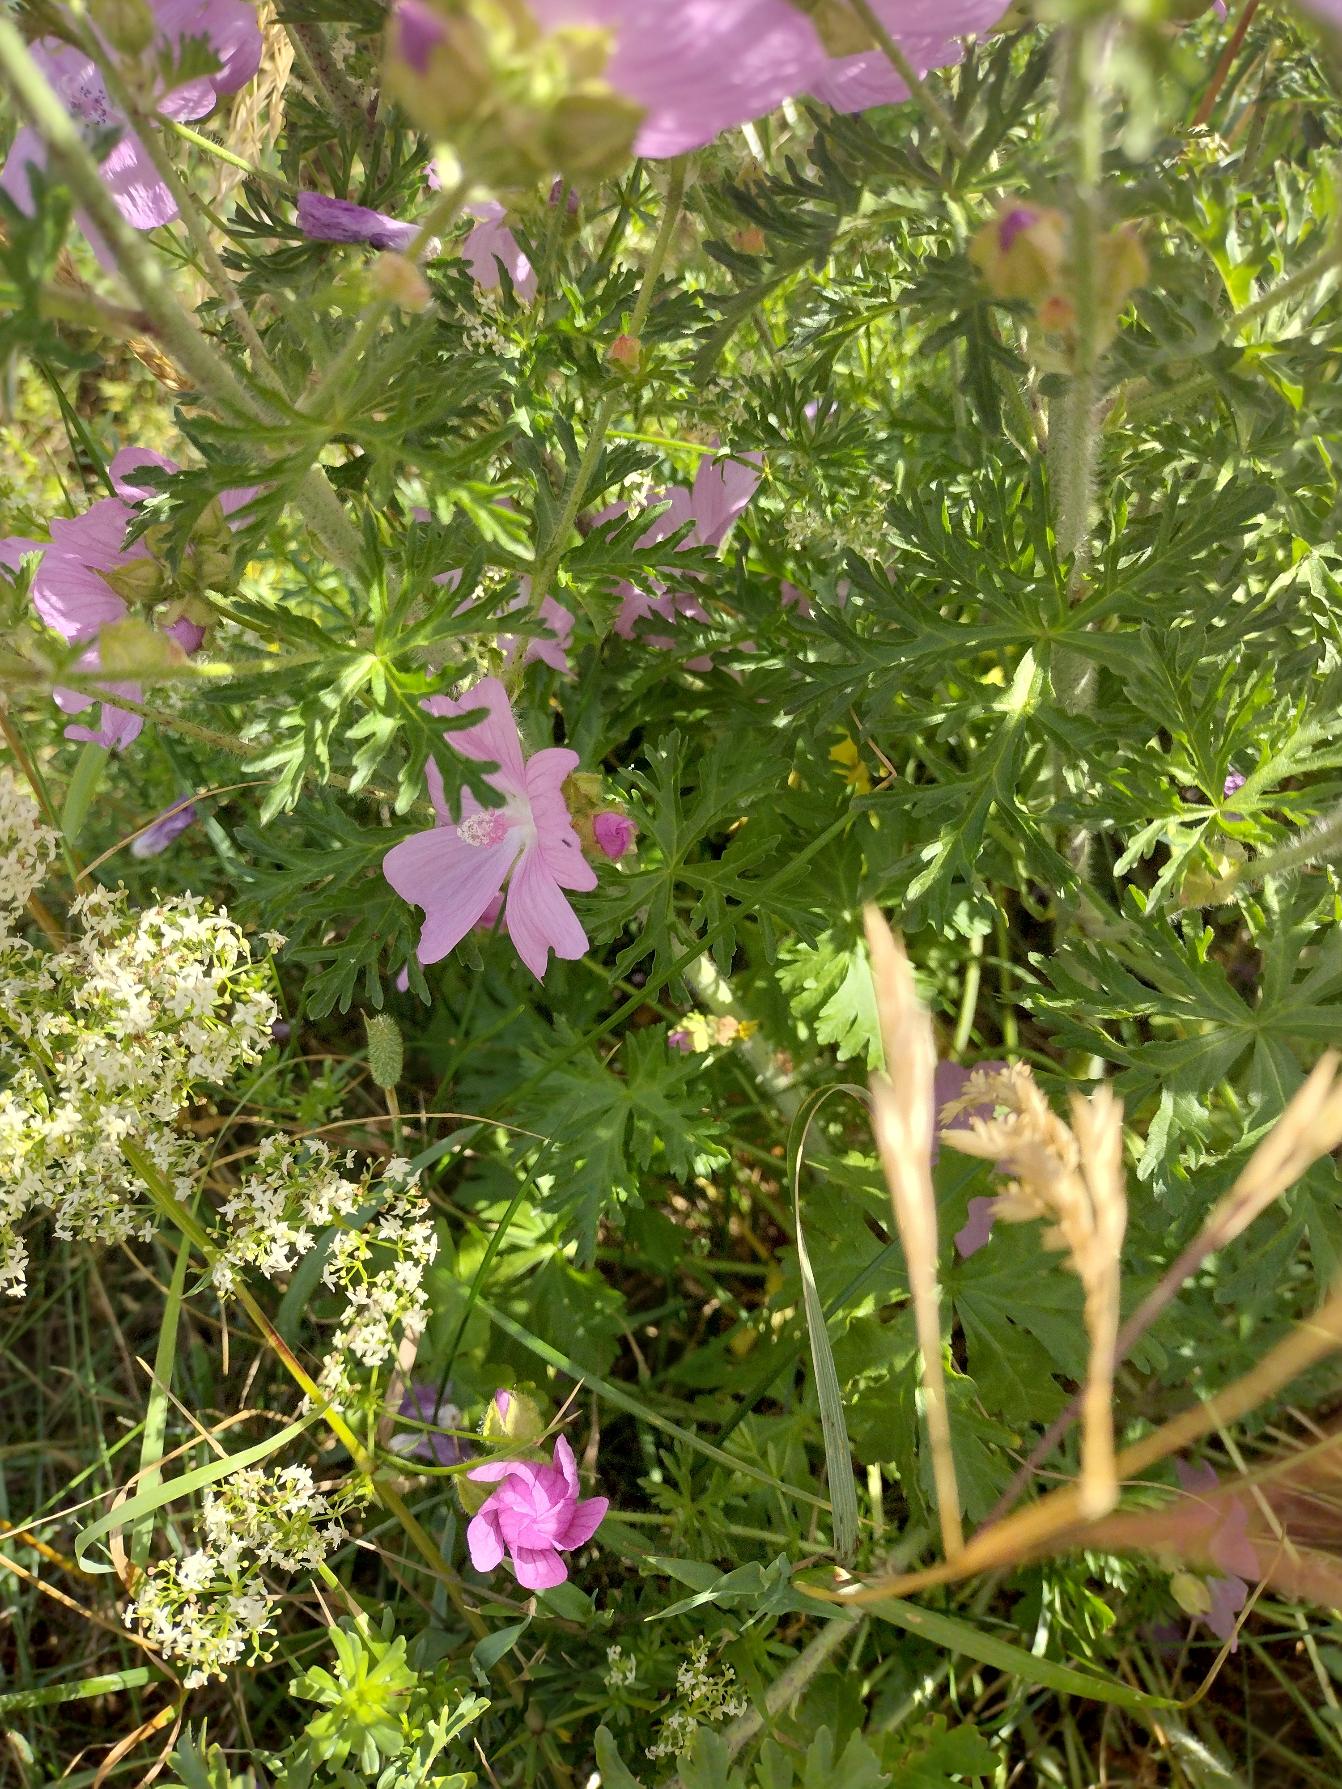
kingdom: Plantae
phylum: Tracheophyta
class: Magnoliopsida
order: Malvales
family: Malvaceae
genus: Malva
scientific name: Malva moschata
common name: Moskus-katost
